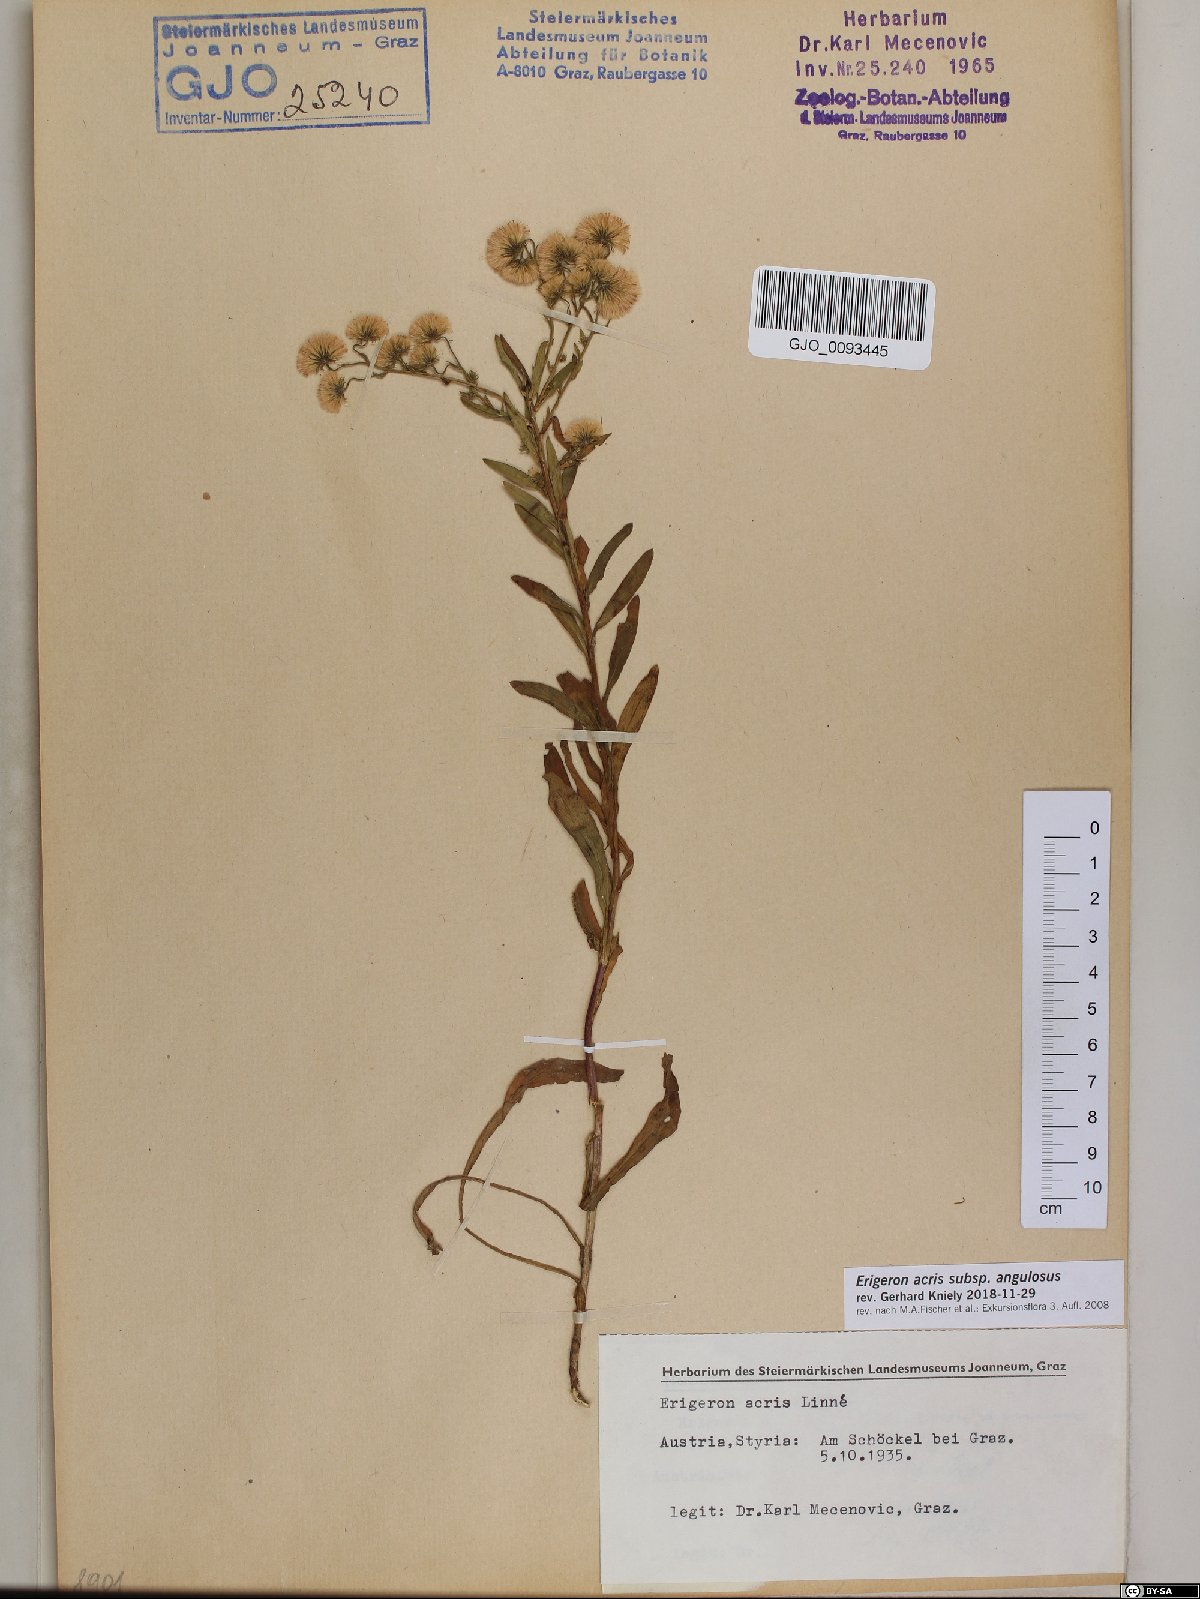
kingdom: Plantae
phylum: Tracheophyta
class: Magnoliopsida
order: Asterales
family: Asteraceae
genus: Erigeron
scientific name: Erigeron angulosus
